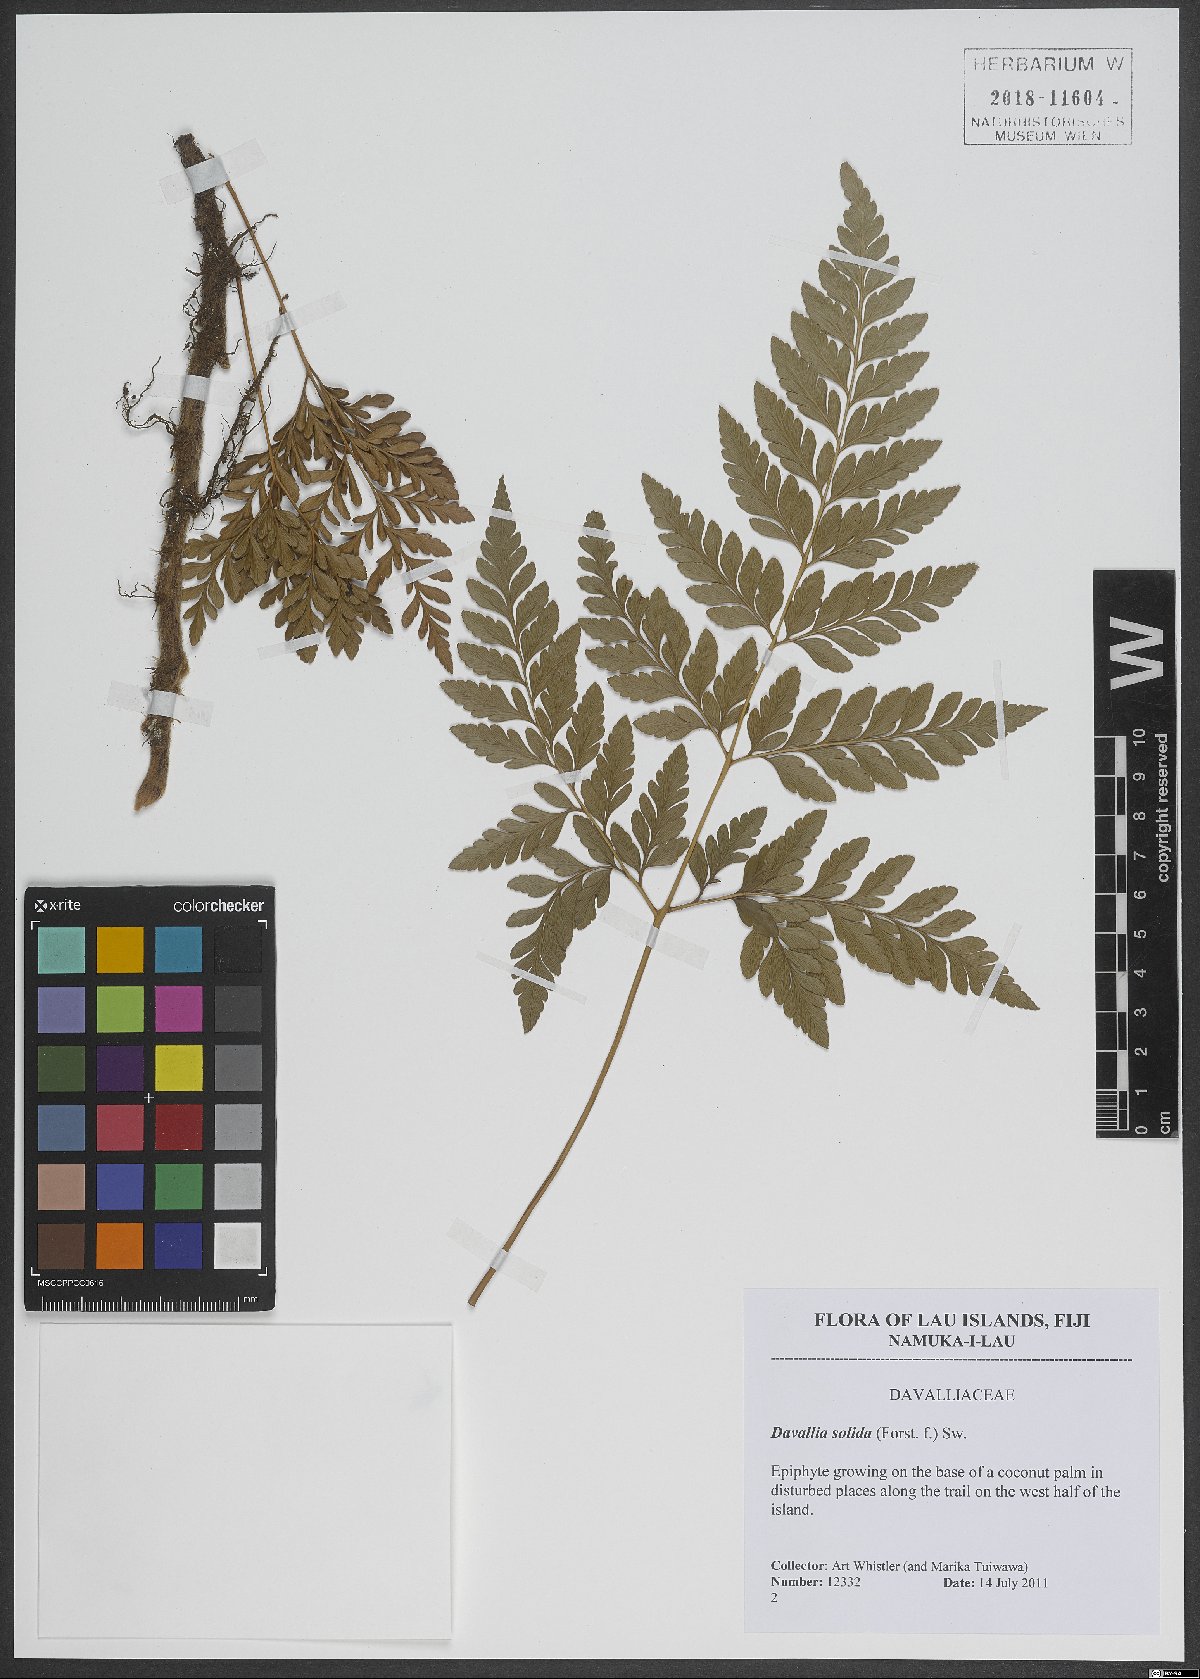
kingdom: Plantae
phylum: Tracheophyta
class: Polypodiopsida
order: Polypodiales
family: Davalliaceae
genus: Davallia
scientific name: Davallia solida
